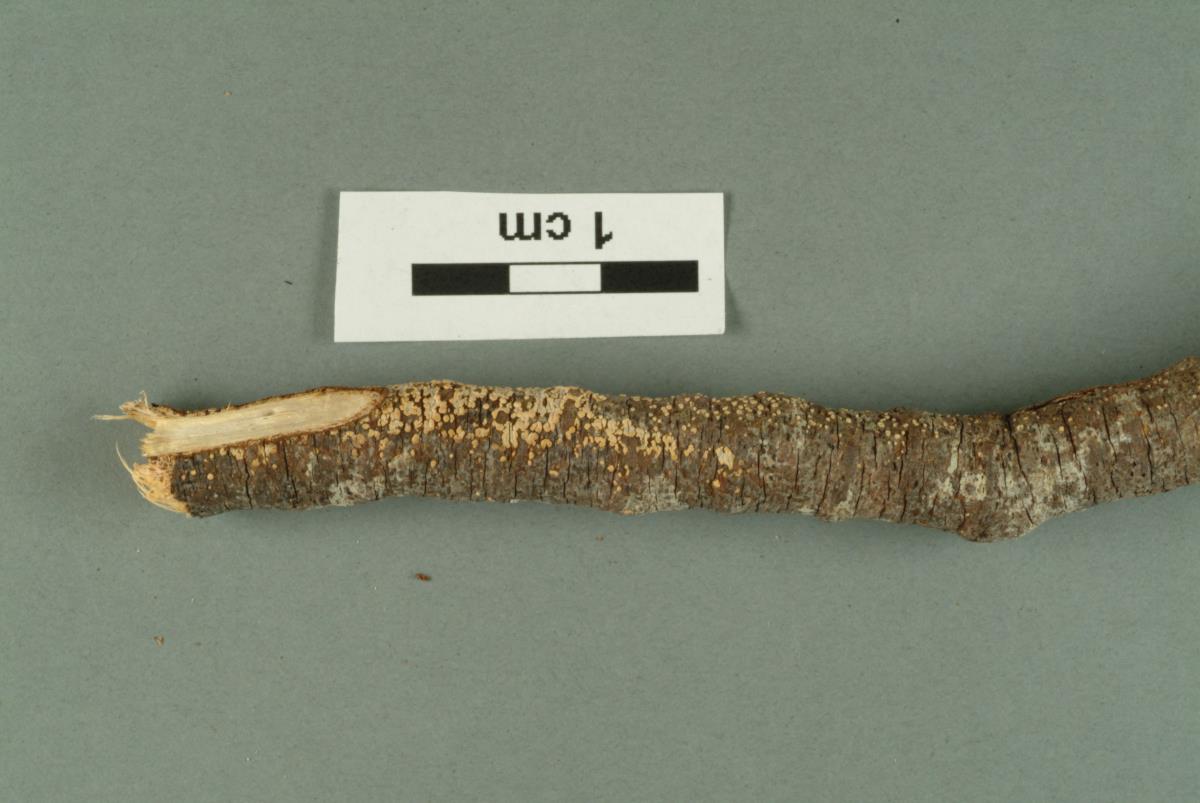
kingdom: Fungi
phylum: Basidiomycota
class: Agaricomycetes
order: Polyporales
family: Steccherinaceae
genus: Steccherinum
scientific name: Steccherinum ochraceum
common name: Ochre spreading tooth
